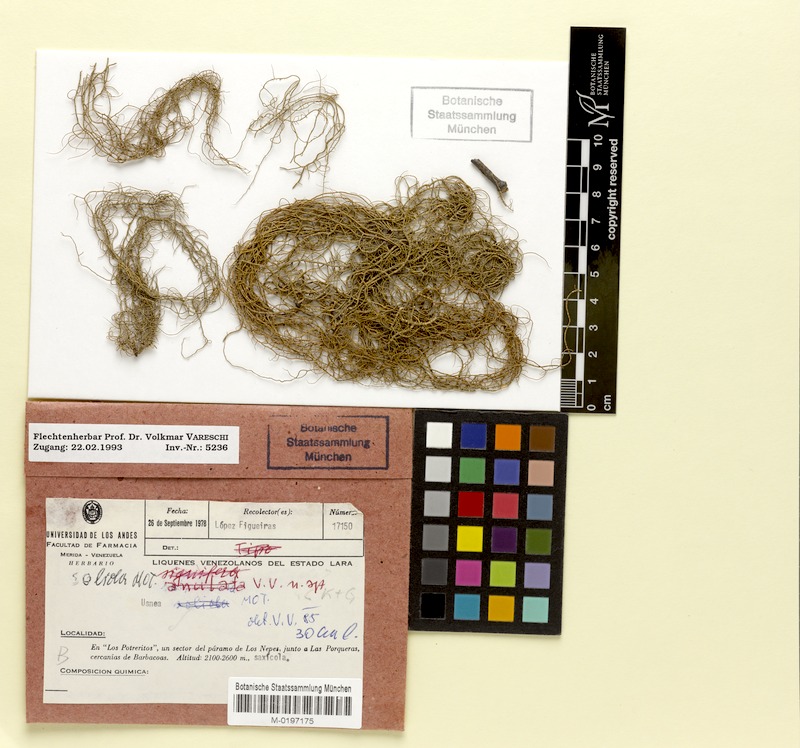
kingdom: Fungi
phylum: Ascomycota
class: Lecanoromycetes
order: Lecanorales
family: Parmeliaceae
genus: Usnea
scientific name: Usnea
